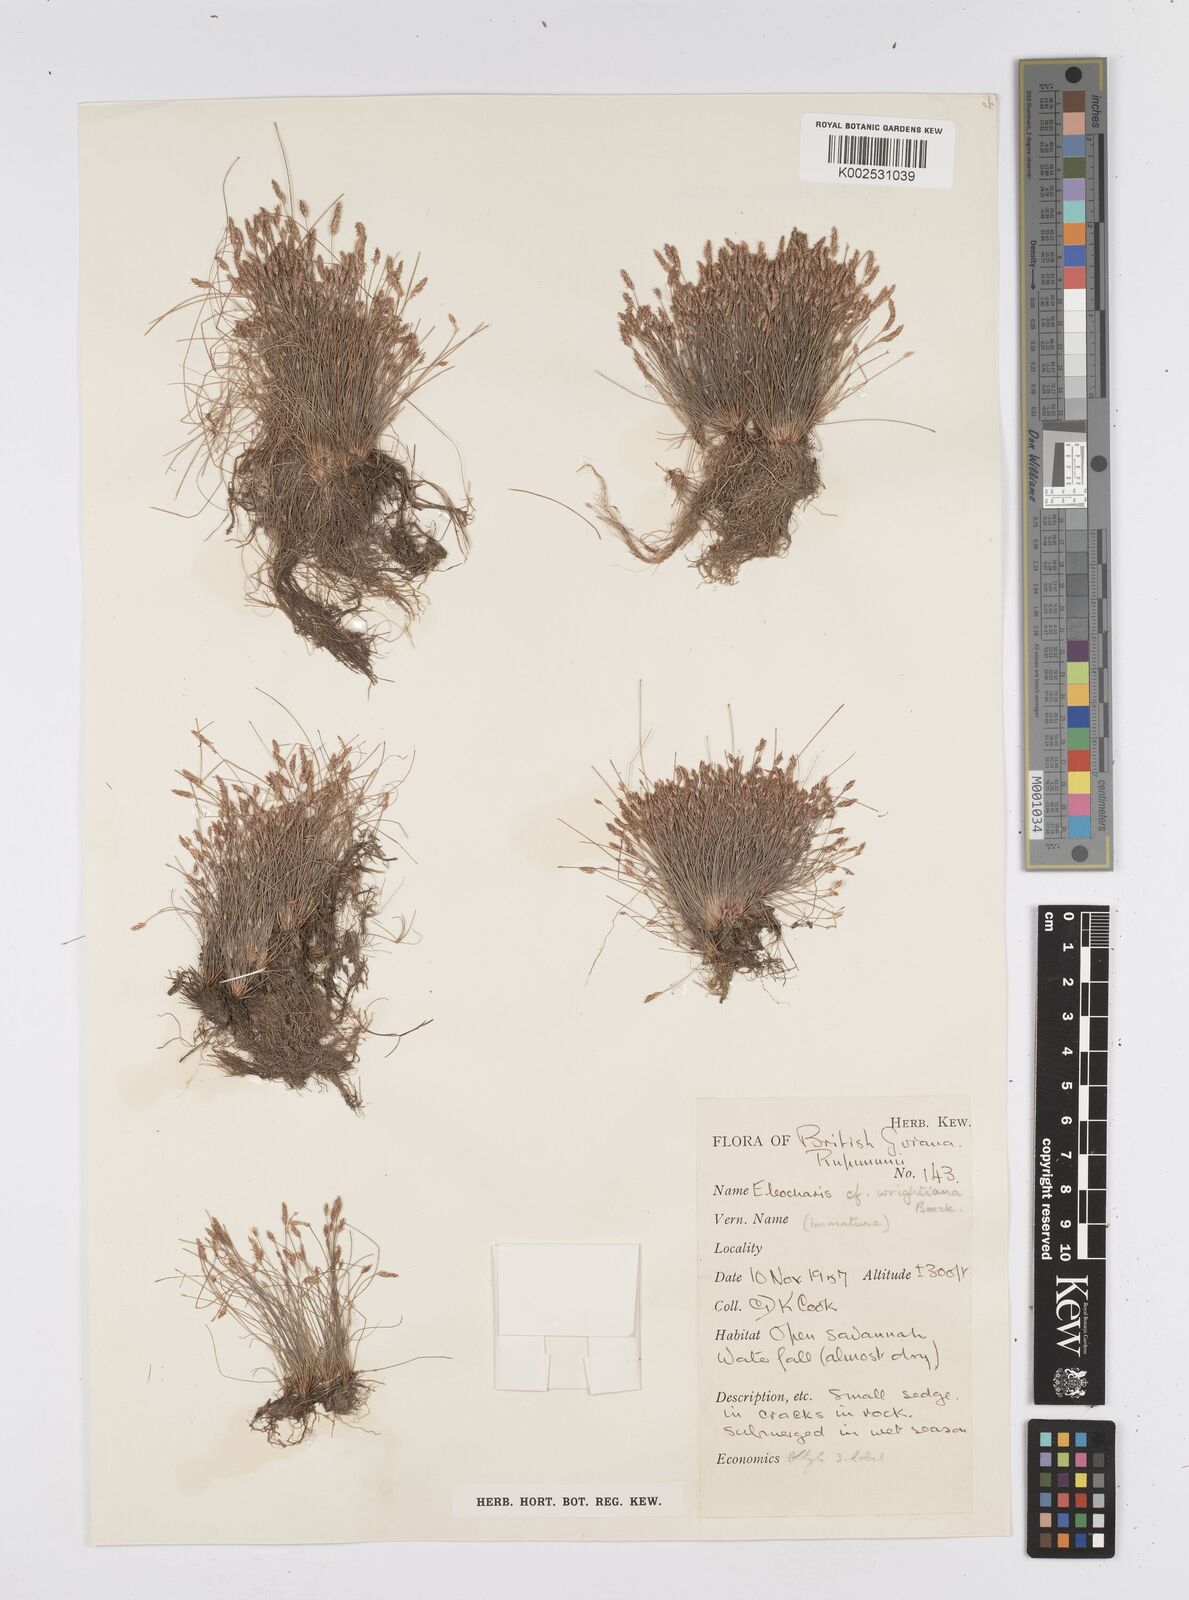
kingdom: Plantae
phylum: Tracheophyta
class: Liliopsida
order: Poales
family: Cyperaceae
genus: Eleocharis
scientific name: Eleocharis subfoliata
